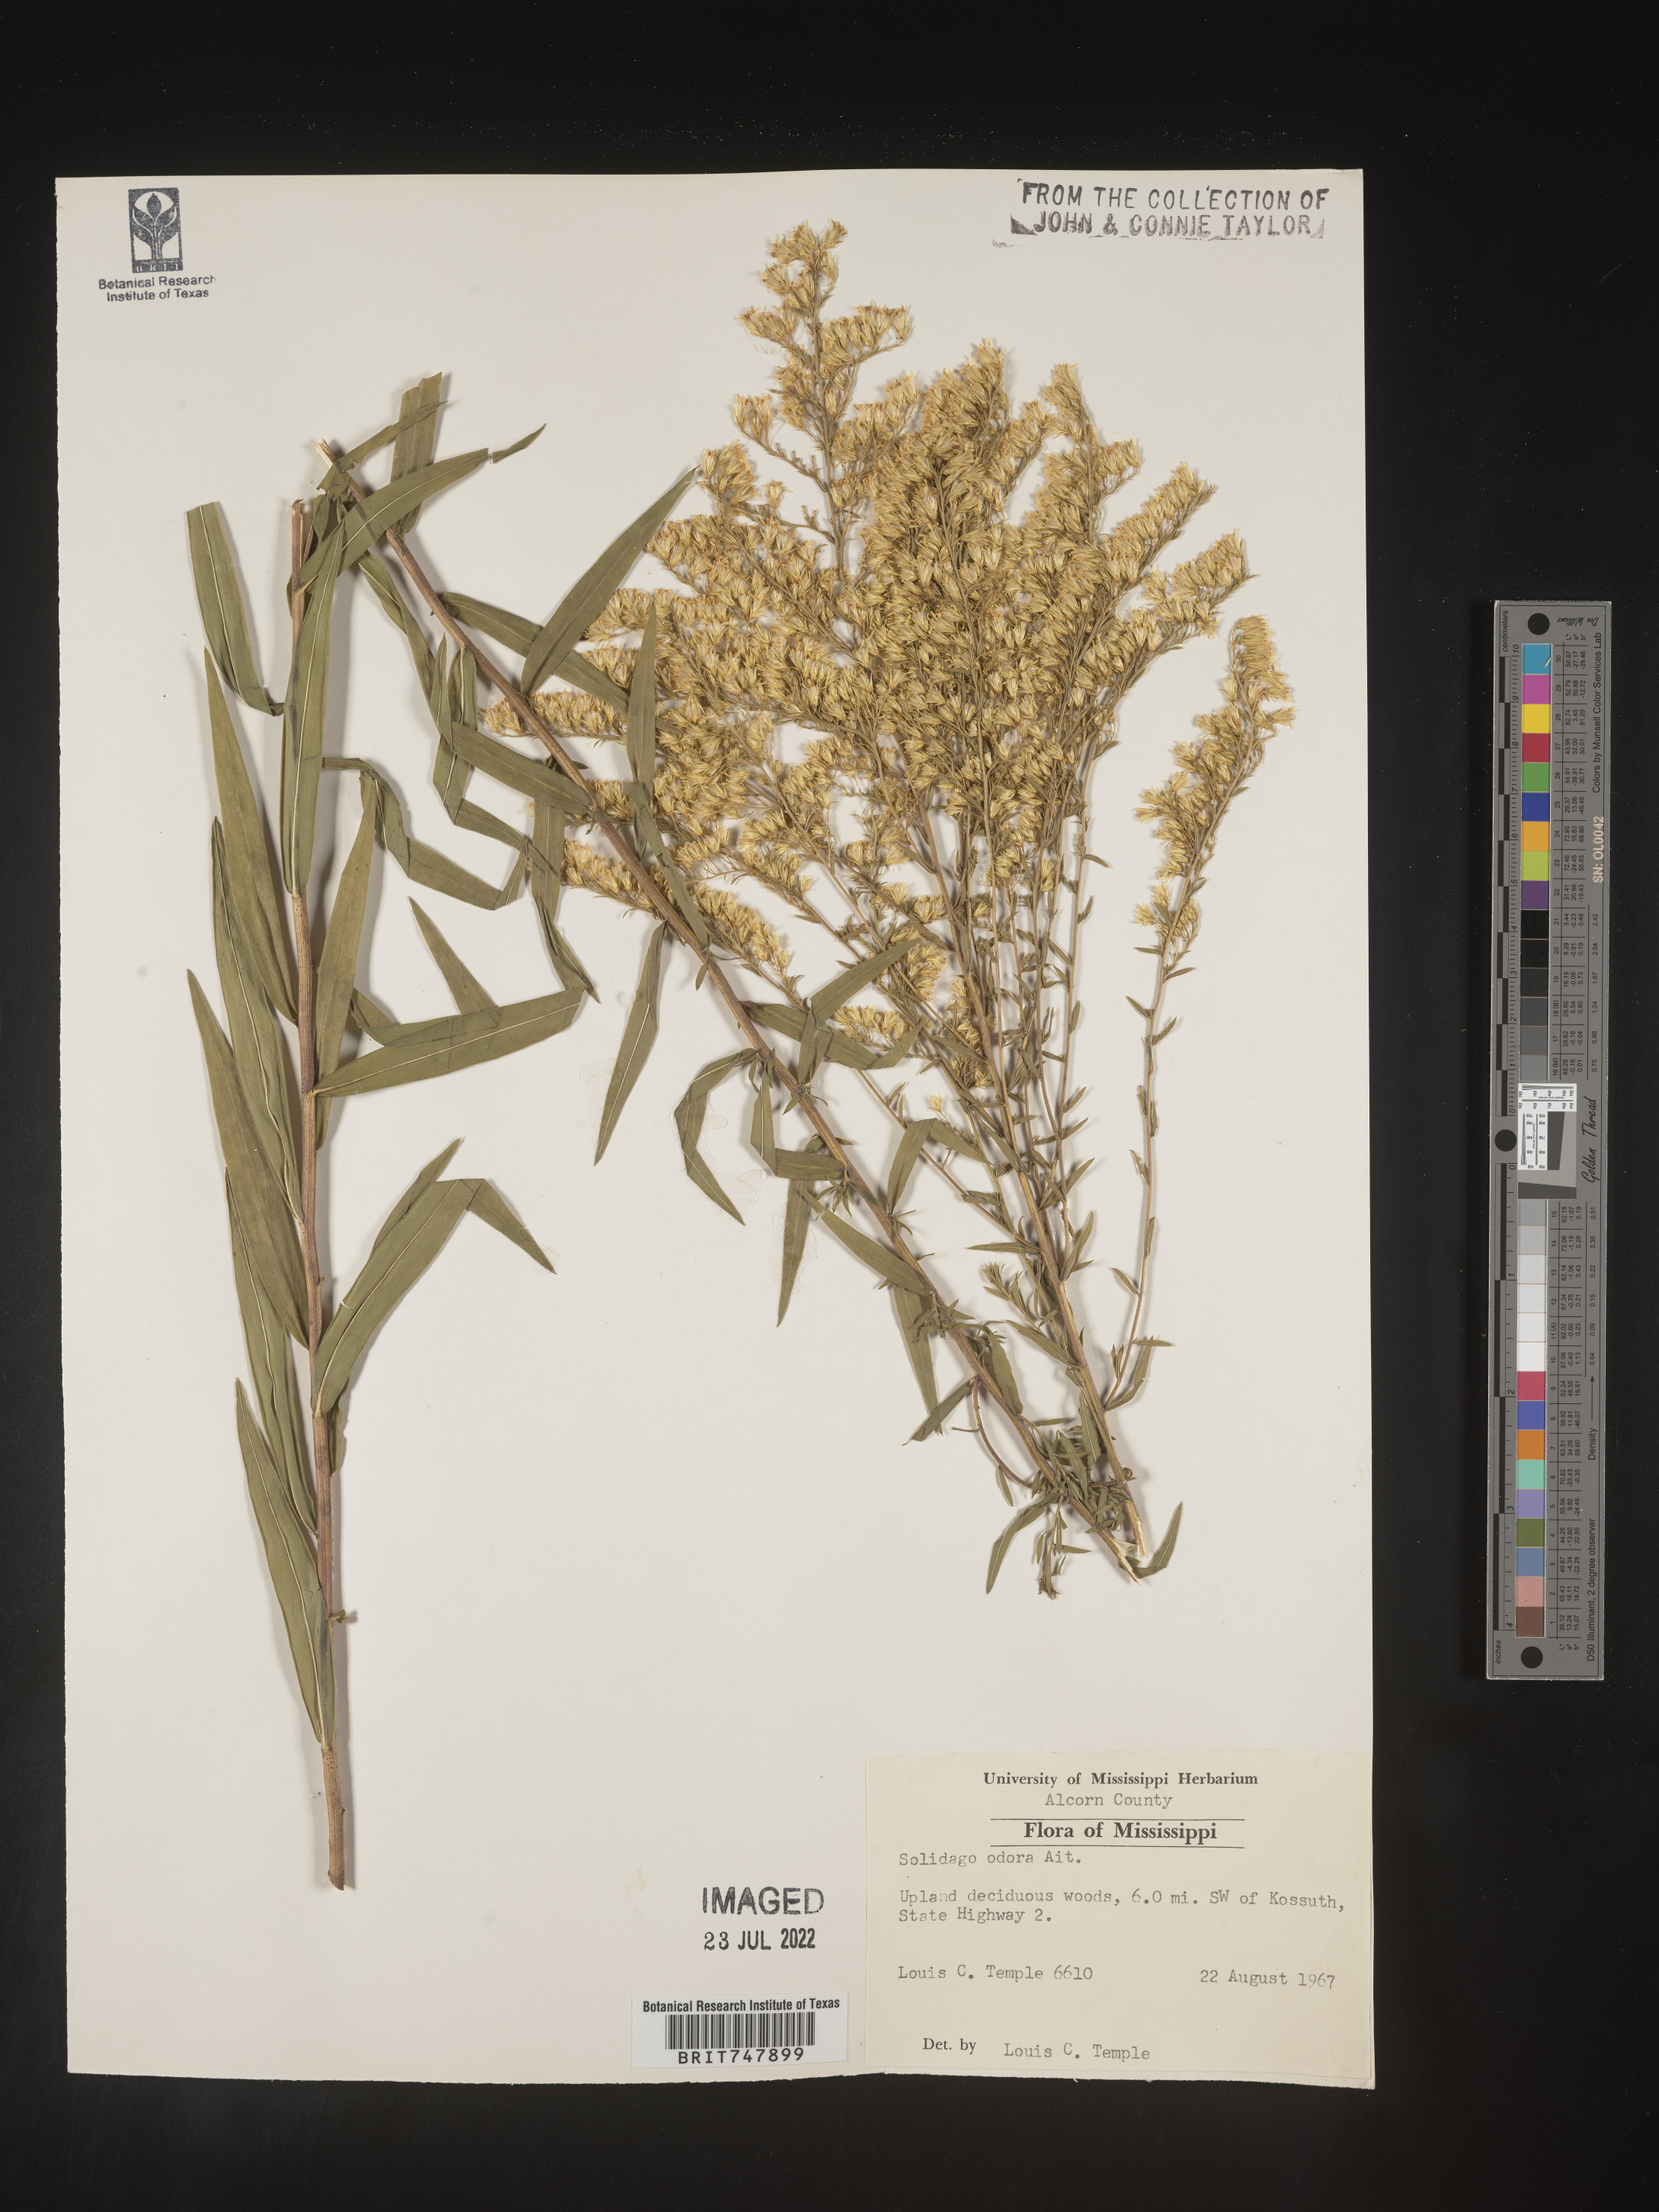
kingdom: Plantae
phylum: Tracheophyta
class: Magnoliopsida
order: Asterales
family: Asteraceae
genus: Solidago
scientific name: Solidago odora
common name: Anise-scented goldenrod
